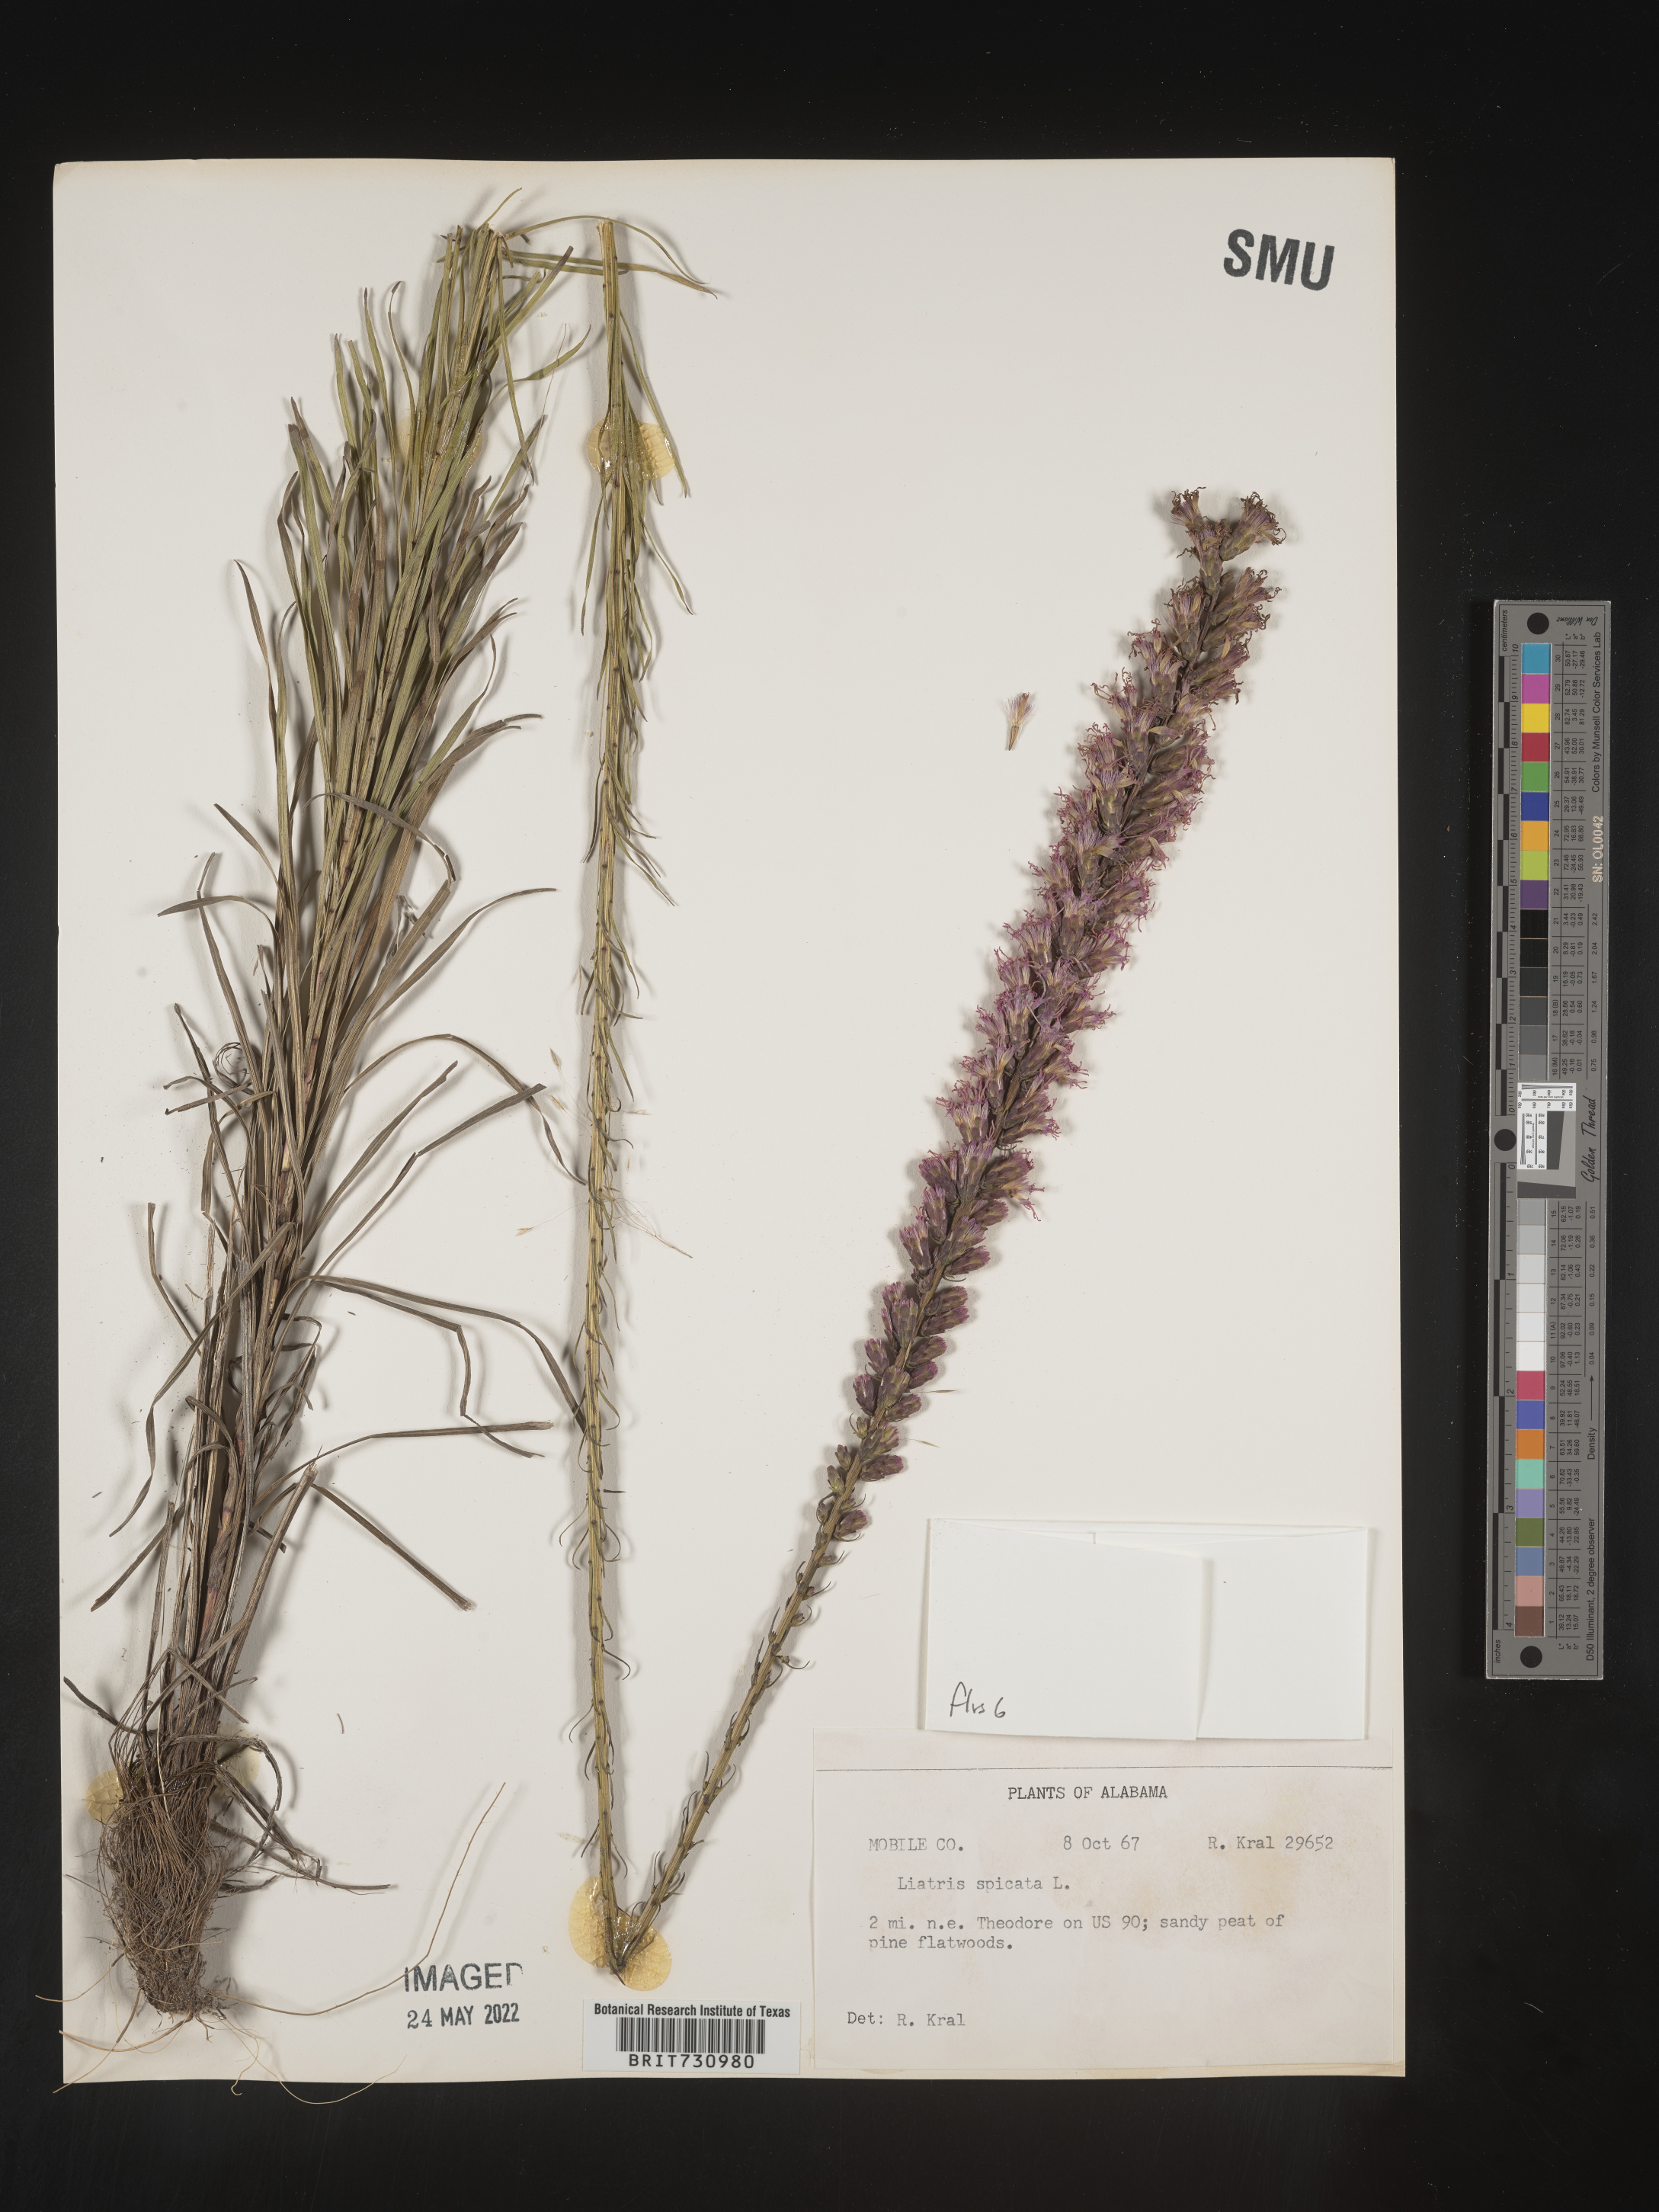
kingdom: Plantae
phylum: Tracheophyta
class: Magnoliopsida
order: Asterales
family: Asteraceae
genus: Liatris
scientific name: Liatris spicata
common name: Florist gayfeather
